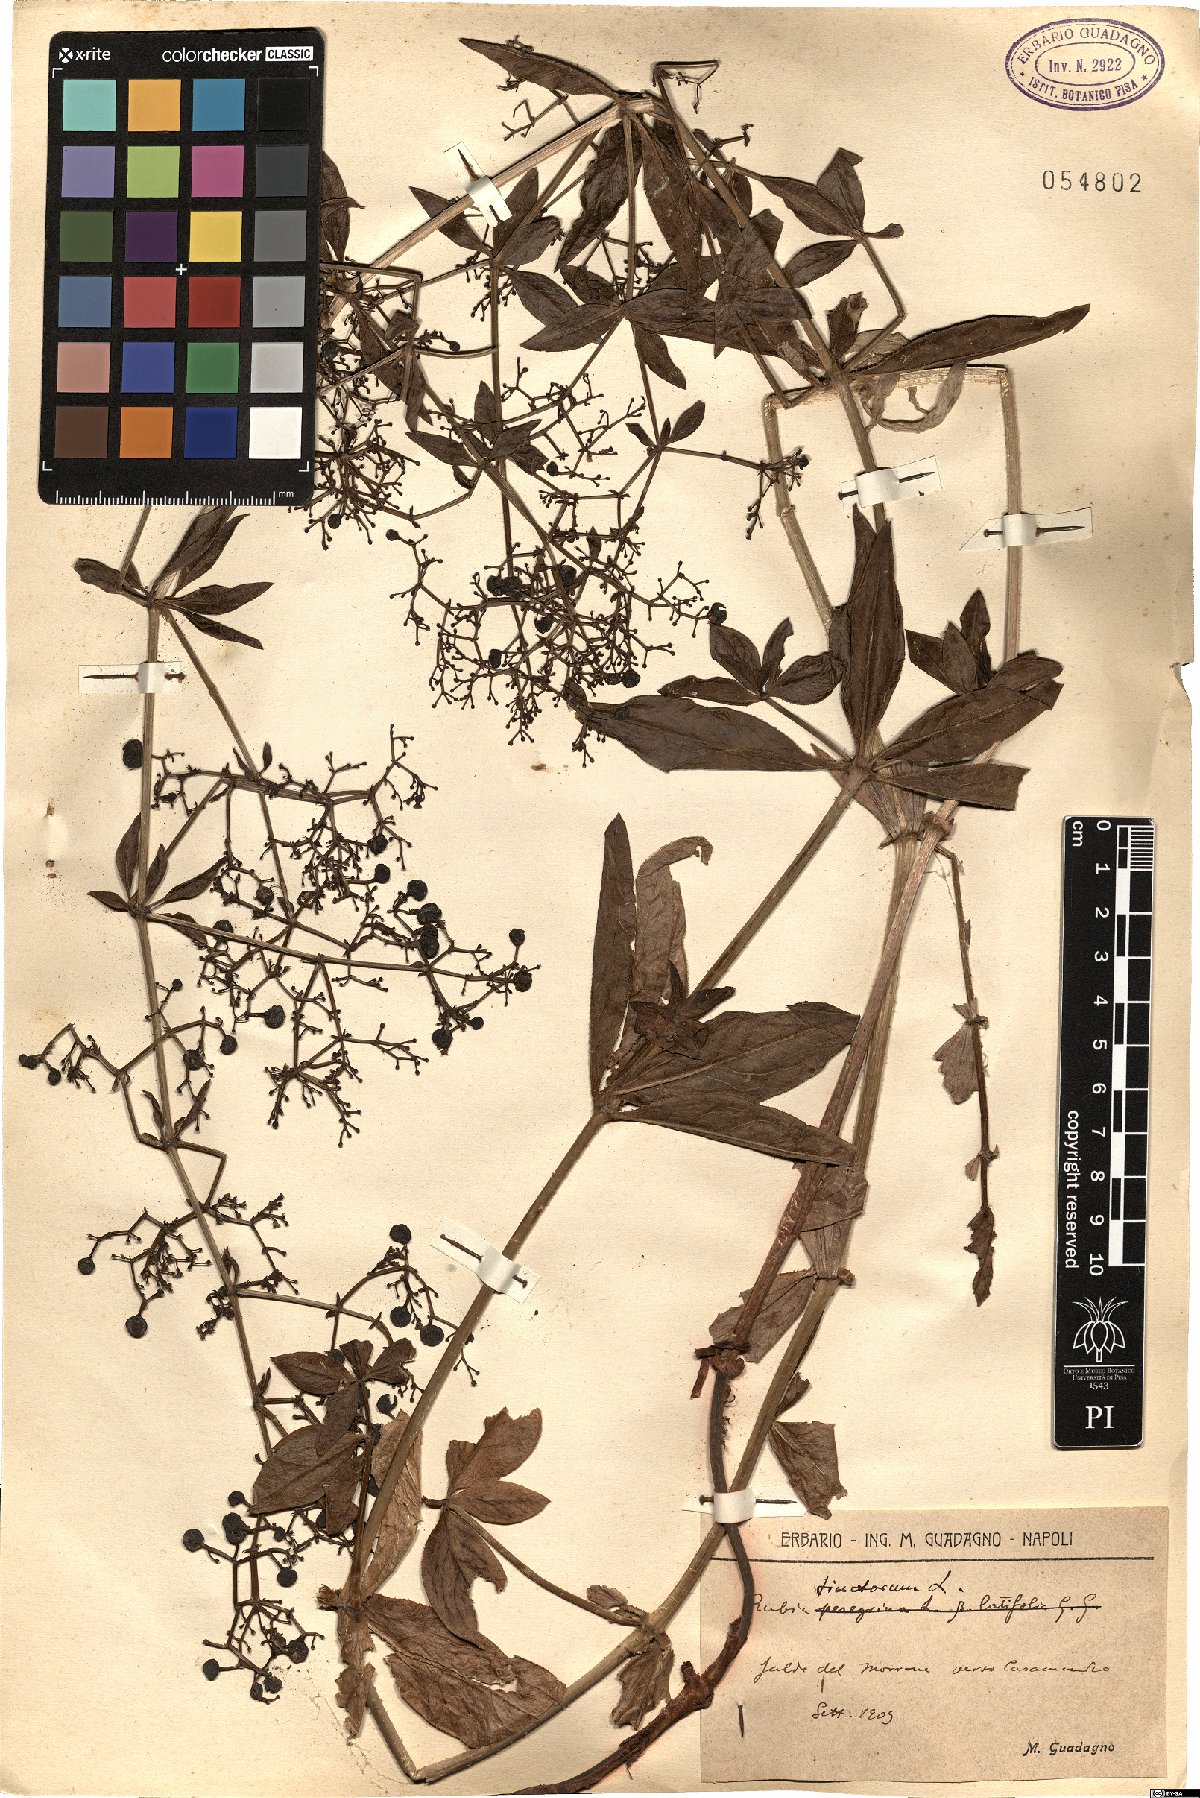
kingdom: Plantae
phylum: Tracheophyta
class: Magnoliopsida
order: Gentianales
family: Rubiaceae
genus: Rubia
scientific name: Rubia tinctorum
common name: Dyer's madder
